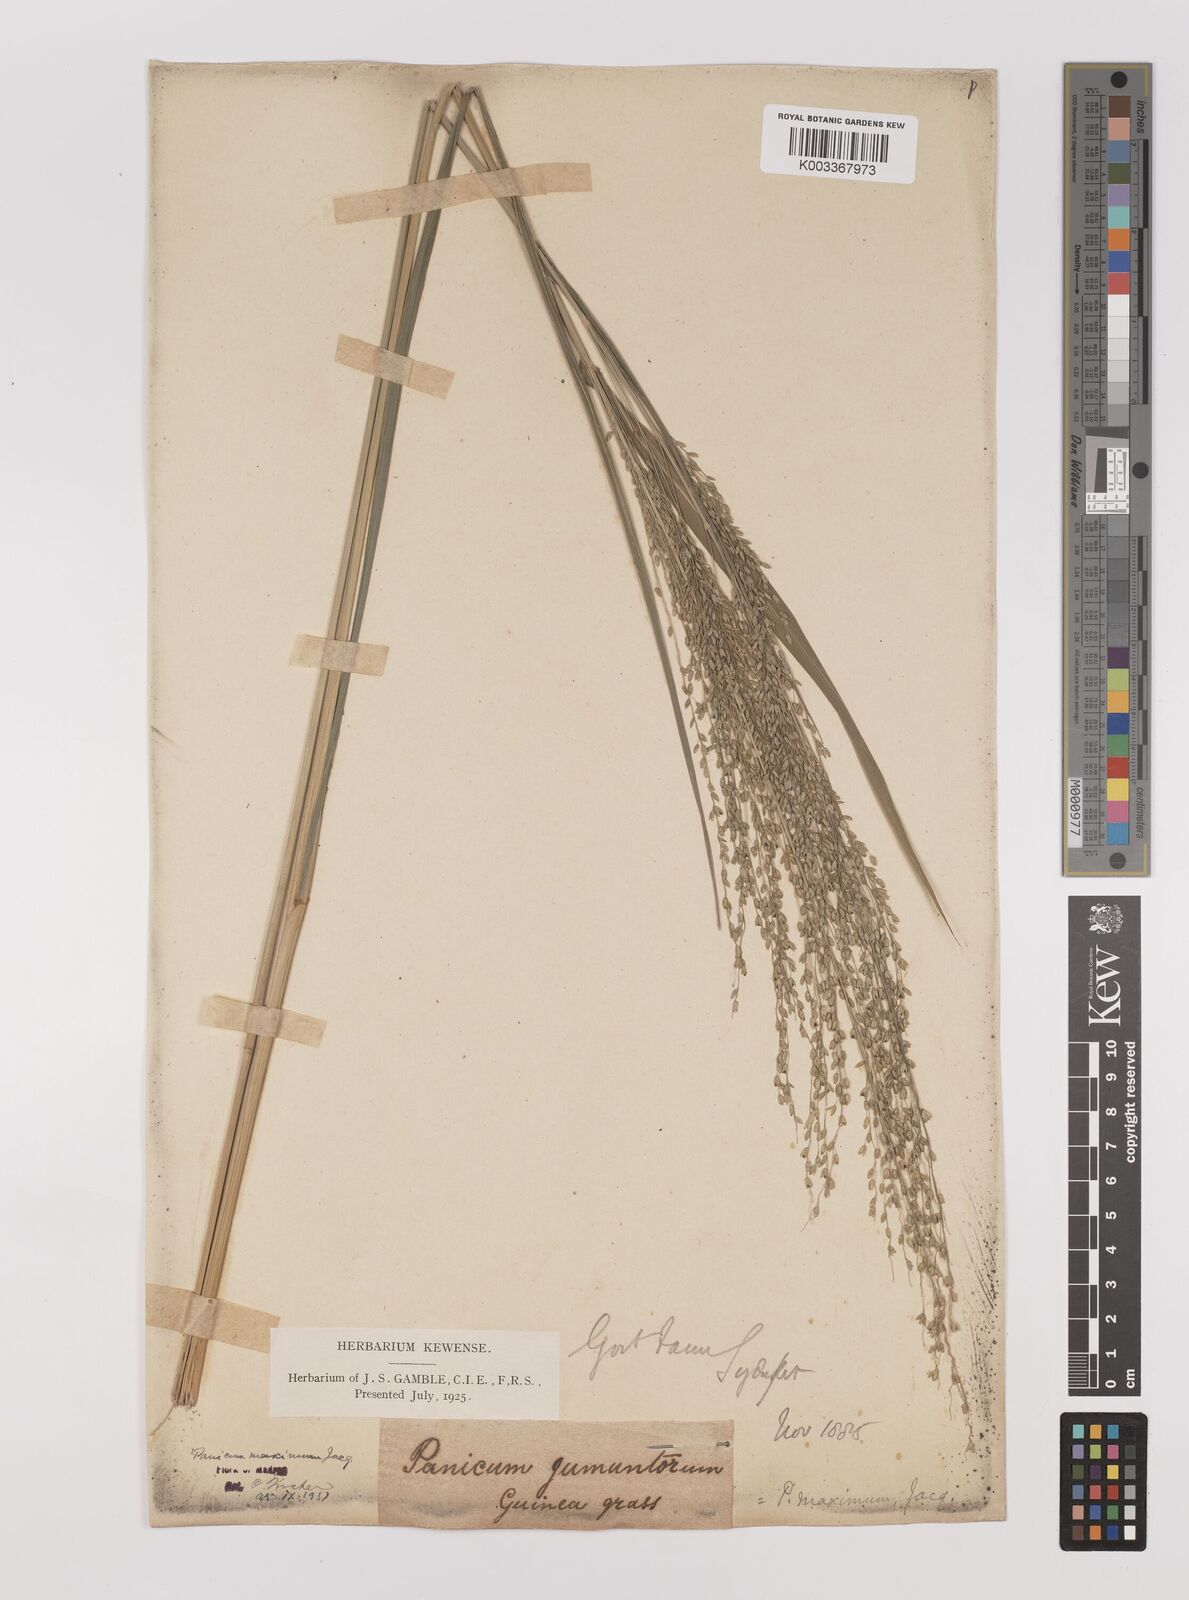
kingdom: Plantae
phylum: Tracheophyta
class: Liliopsida
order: Poales
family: Poaceae
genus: Megathyrsus
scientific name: Megathyrsus maximus
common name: Guineagrass
